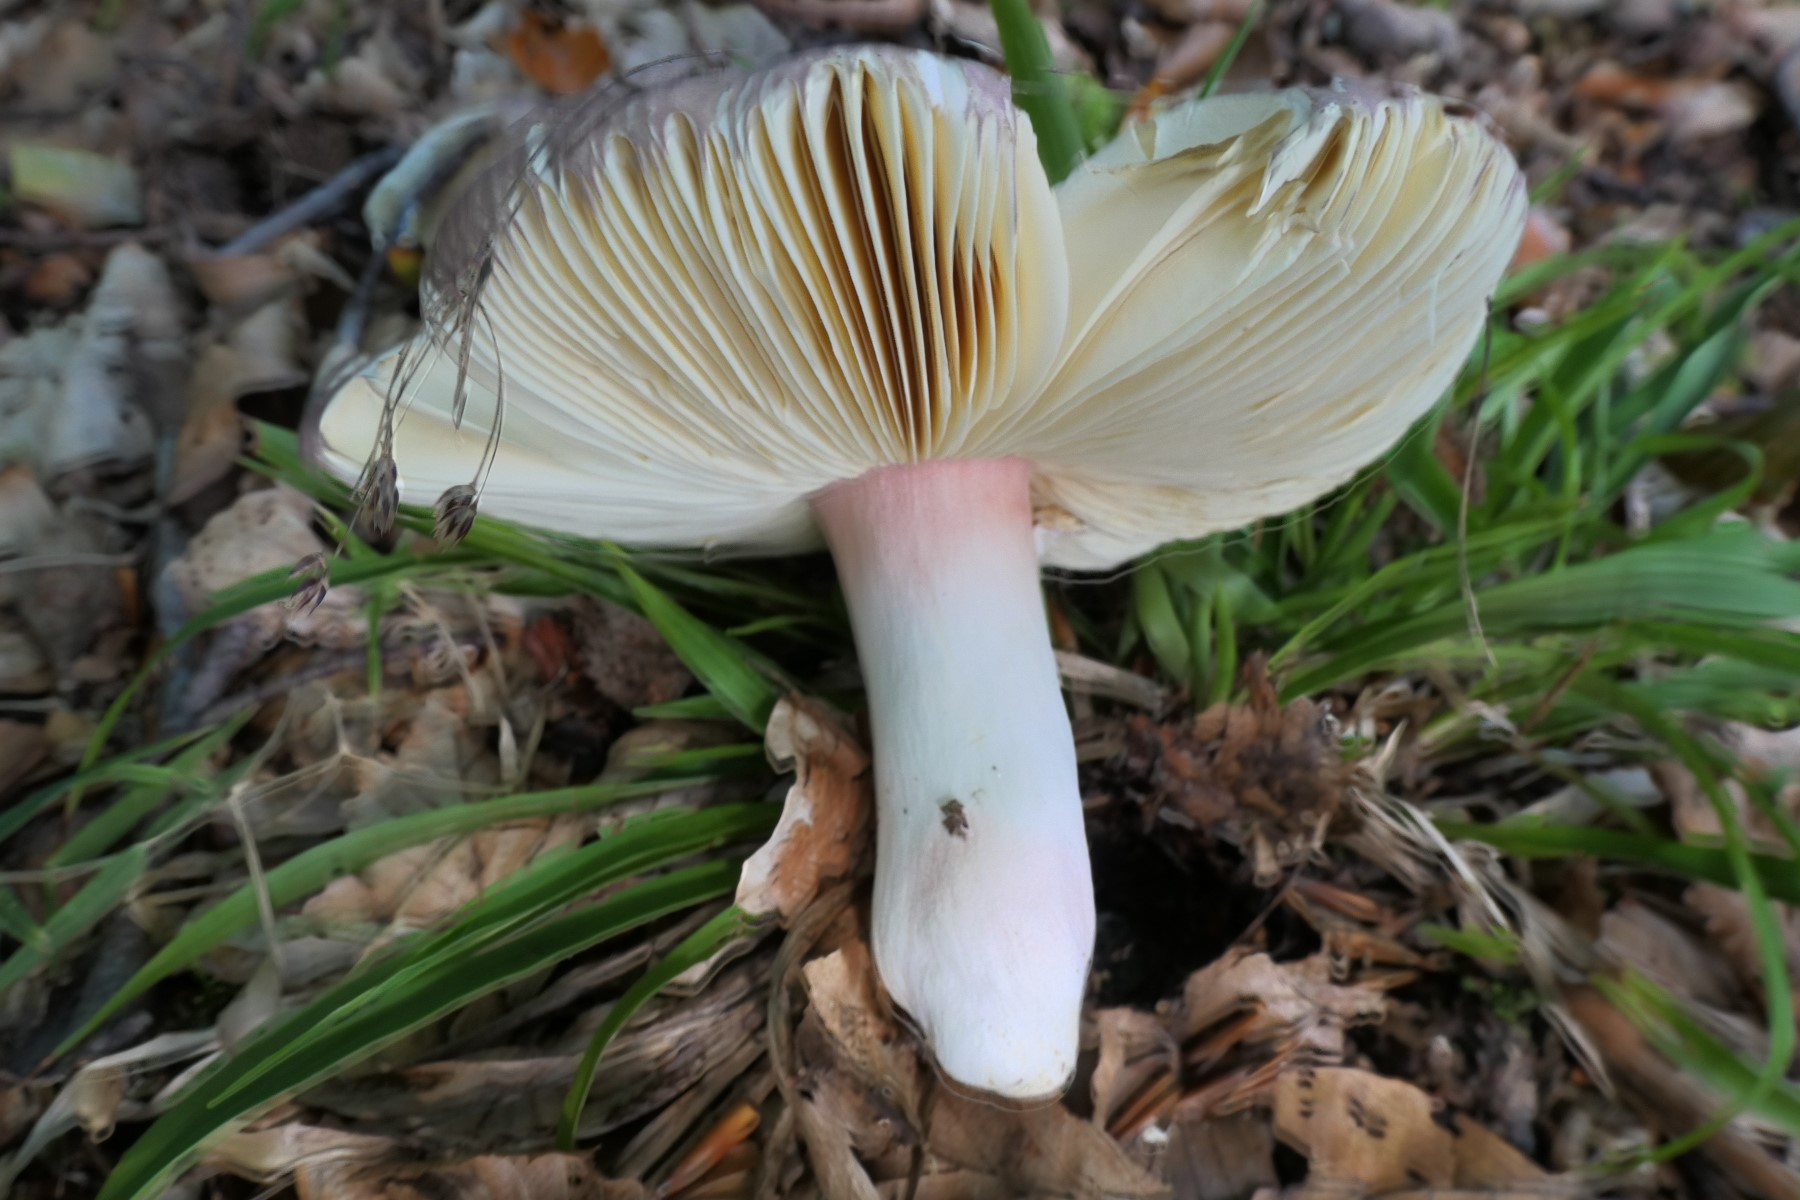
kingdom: Fungi
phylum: Basidiomycota
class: Agaricomycetes
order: Russulales
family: Russulaceae
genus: Russula
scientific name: Russula olivacea
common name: stor skørhat
